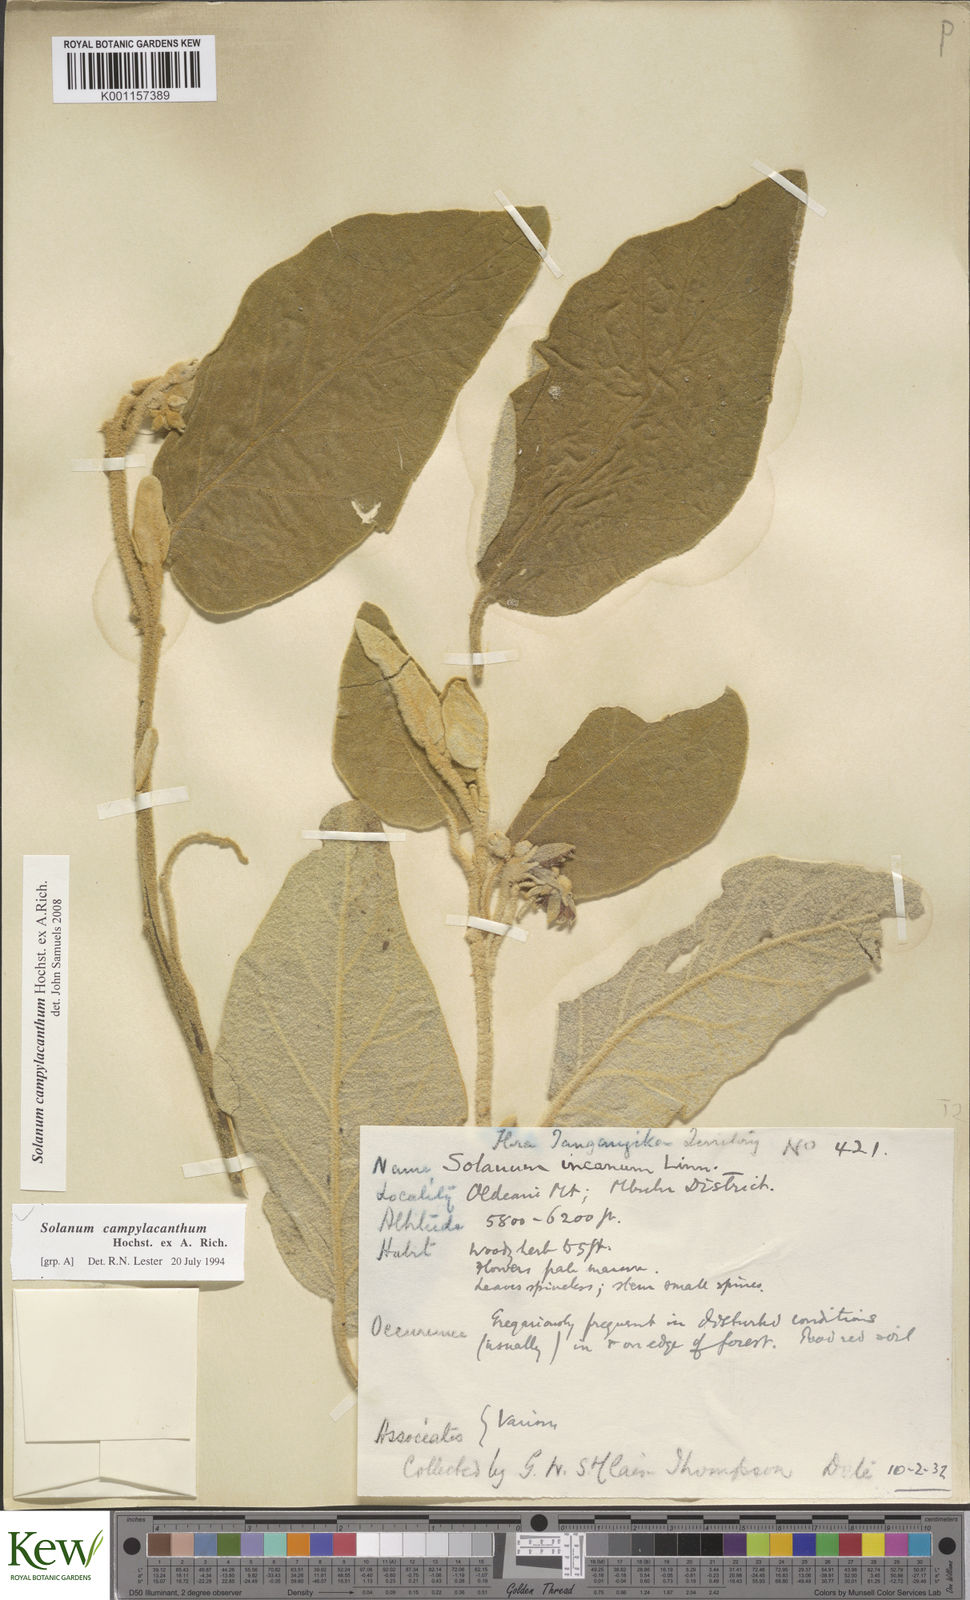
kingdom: Plantae
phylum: Tracheophyta
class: Magnoliopsida
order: Solanales
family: Solanaceae
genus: Solanum
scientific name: Solanum campylacanthum
